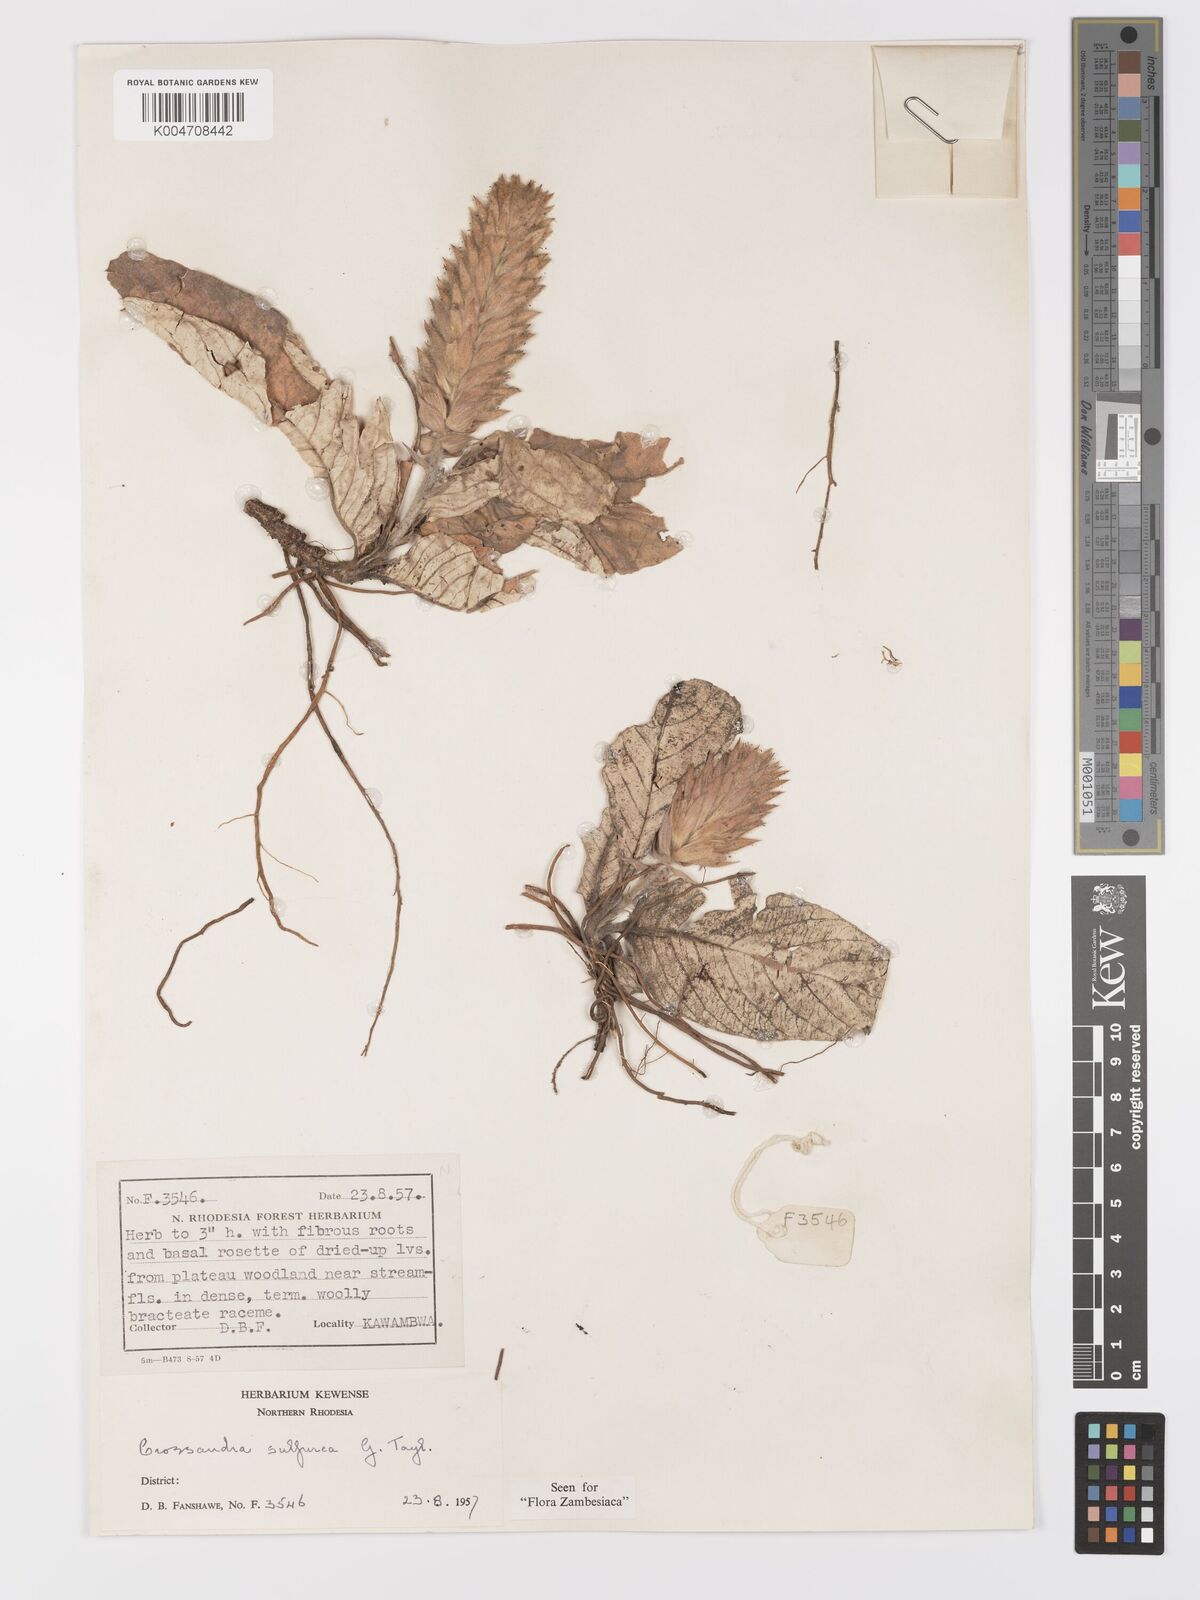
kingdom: Plantae
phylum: Tracheophyta
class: Magnoliopsida
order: Lamiales
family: Acanthaceae
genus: Crossandra
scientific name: Crossandra sulphurea
